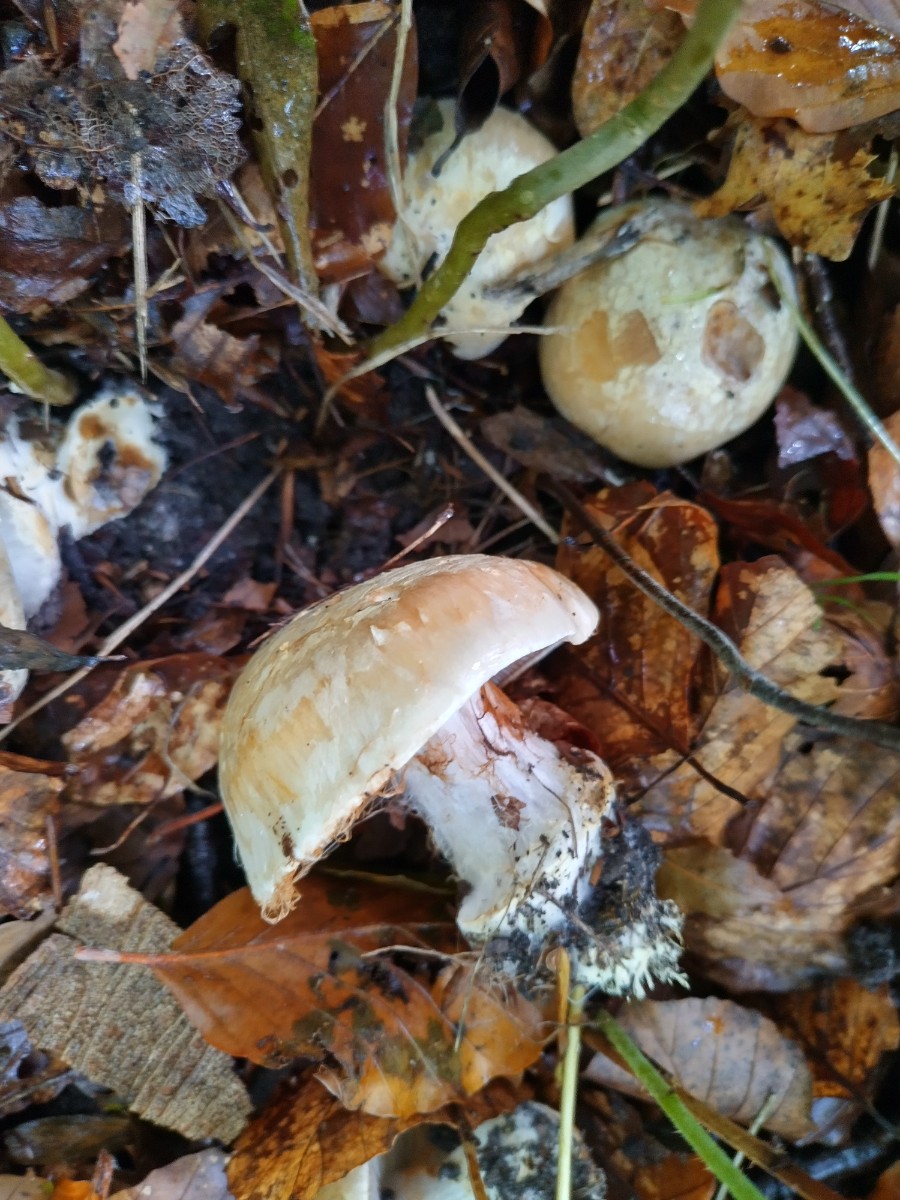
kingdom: Fungi
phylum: Basidiomycota
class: Agaricomycetes
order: Agaricales
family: Cortinariaceae
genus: Phlegmacium
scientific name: Phlegmacium
